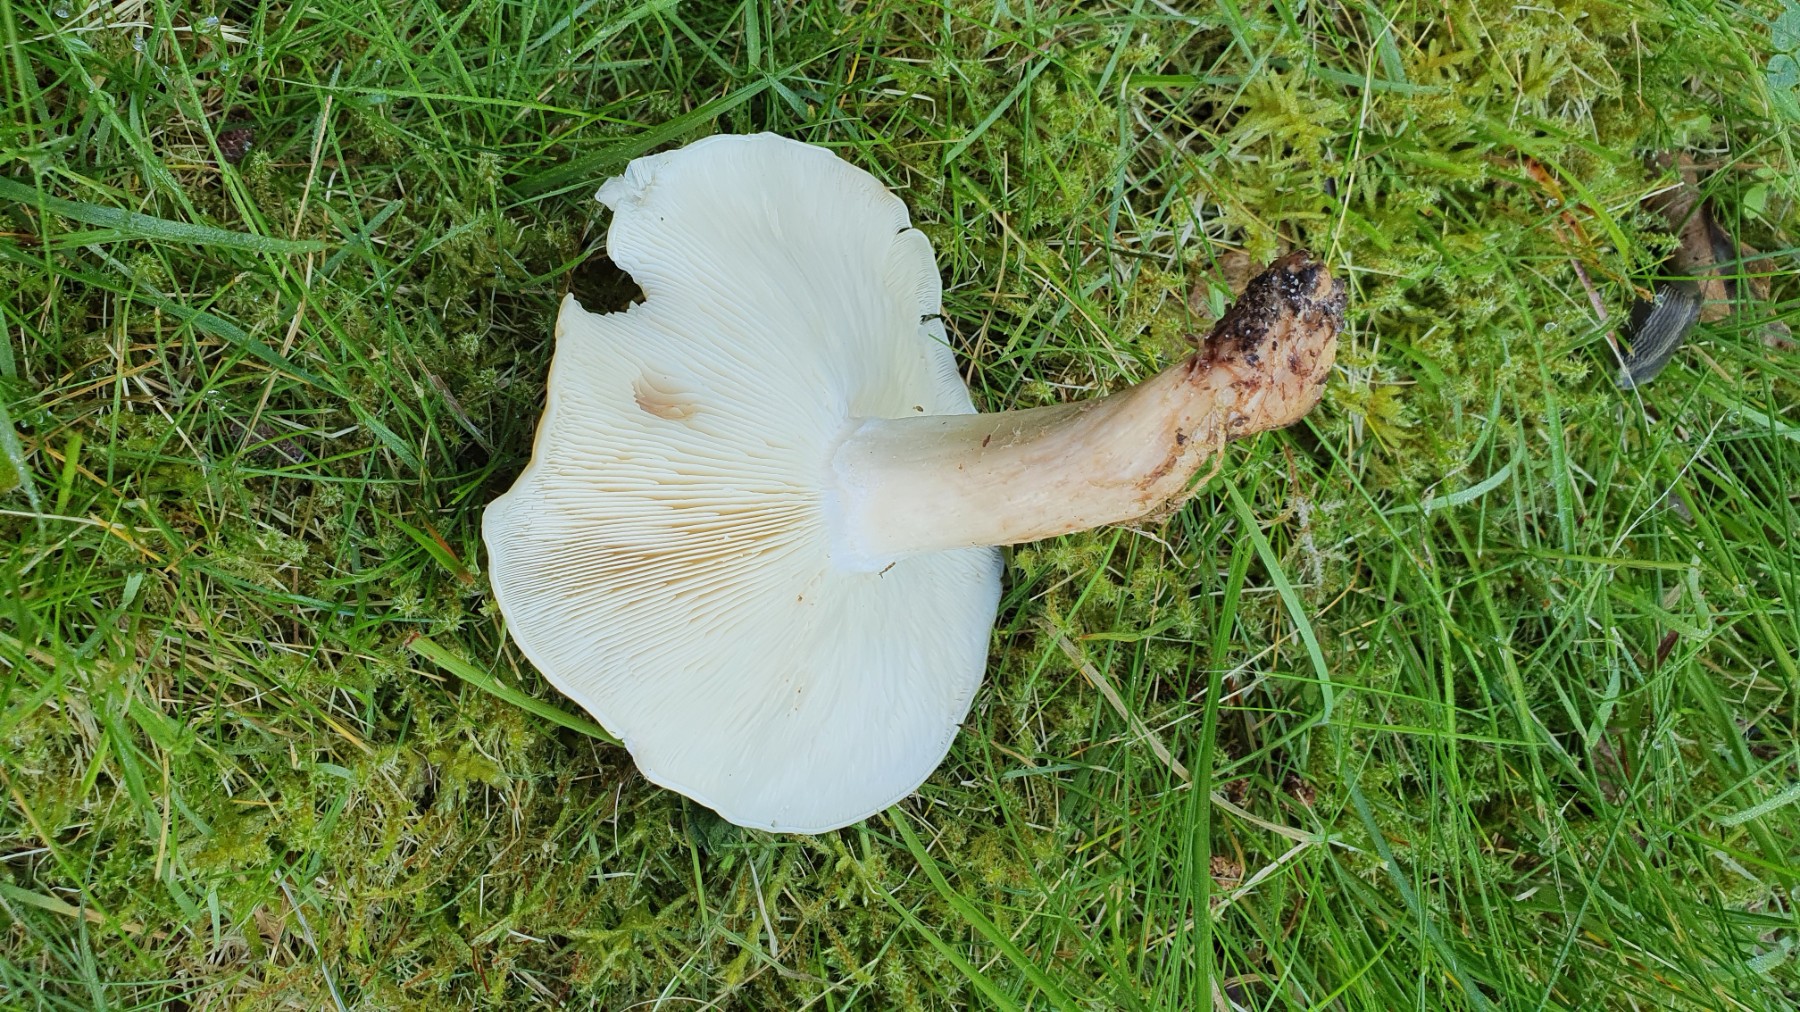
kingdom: Fungi
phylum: Basidiomycota
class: Agaricomycetes
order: Agaricales
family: Lyophyllaceae
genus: Calocybe
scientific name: Calocybe gambosa
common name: vårmusseron
